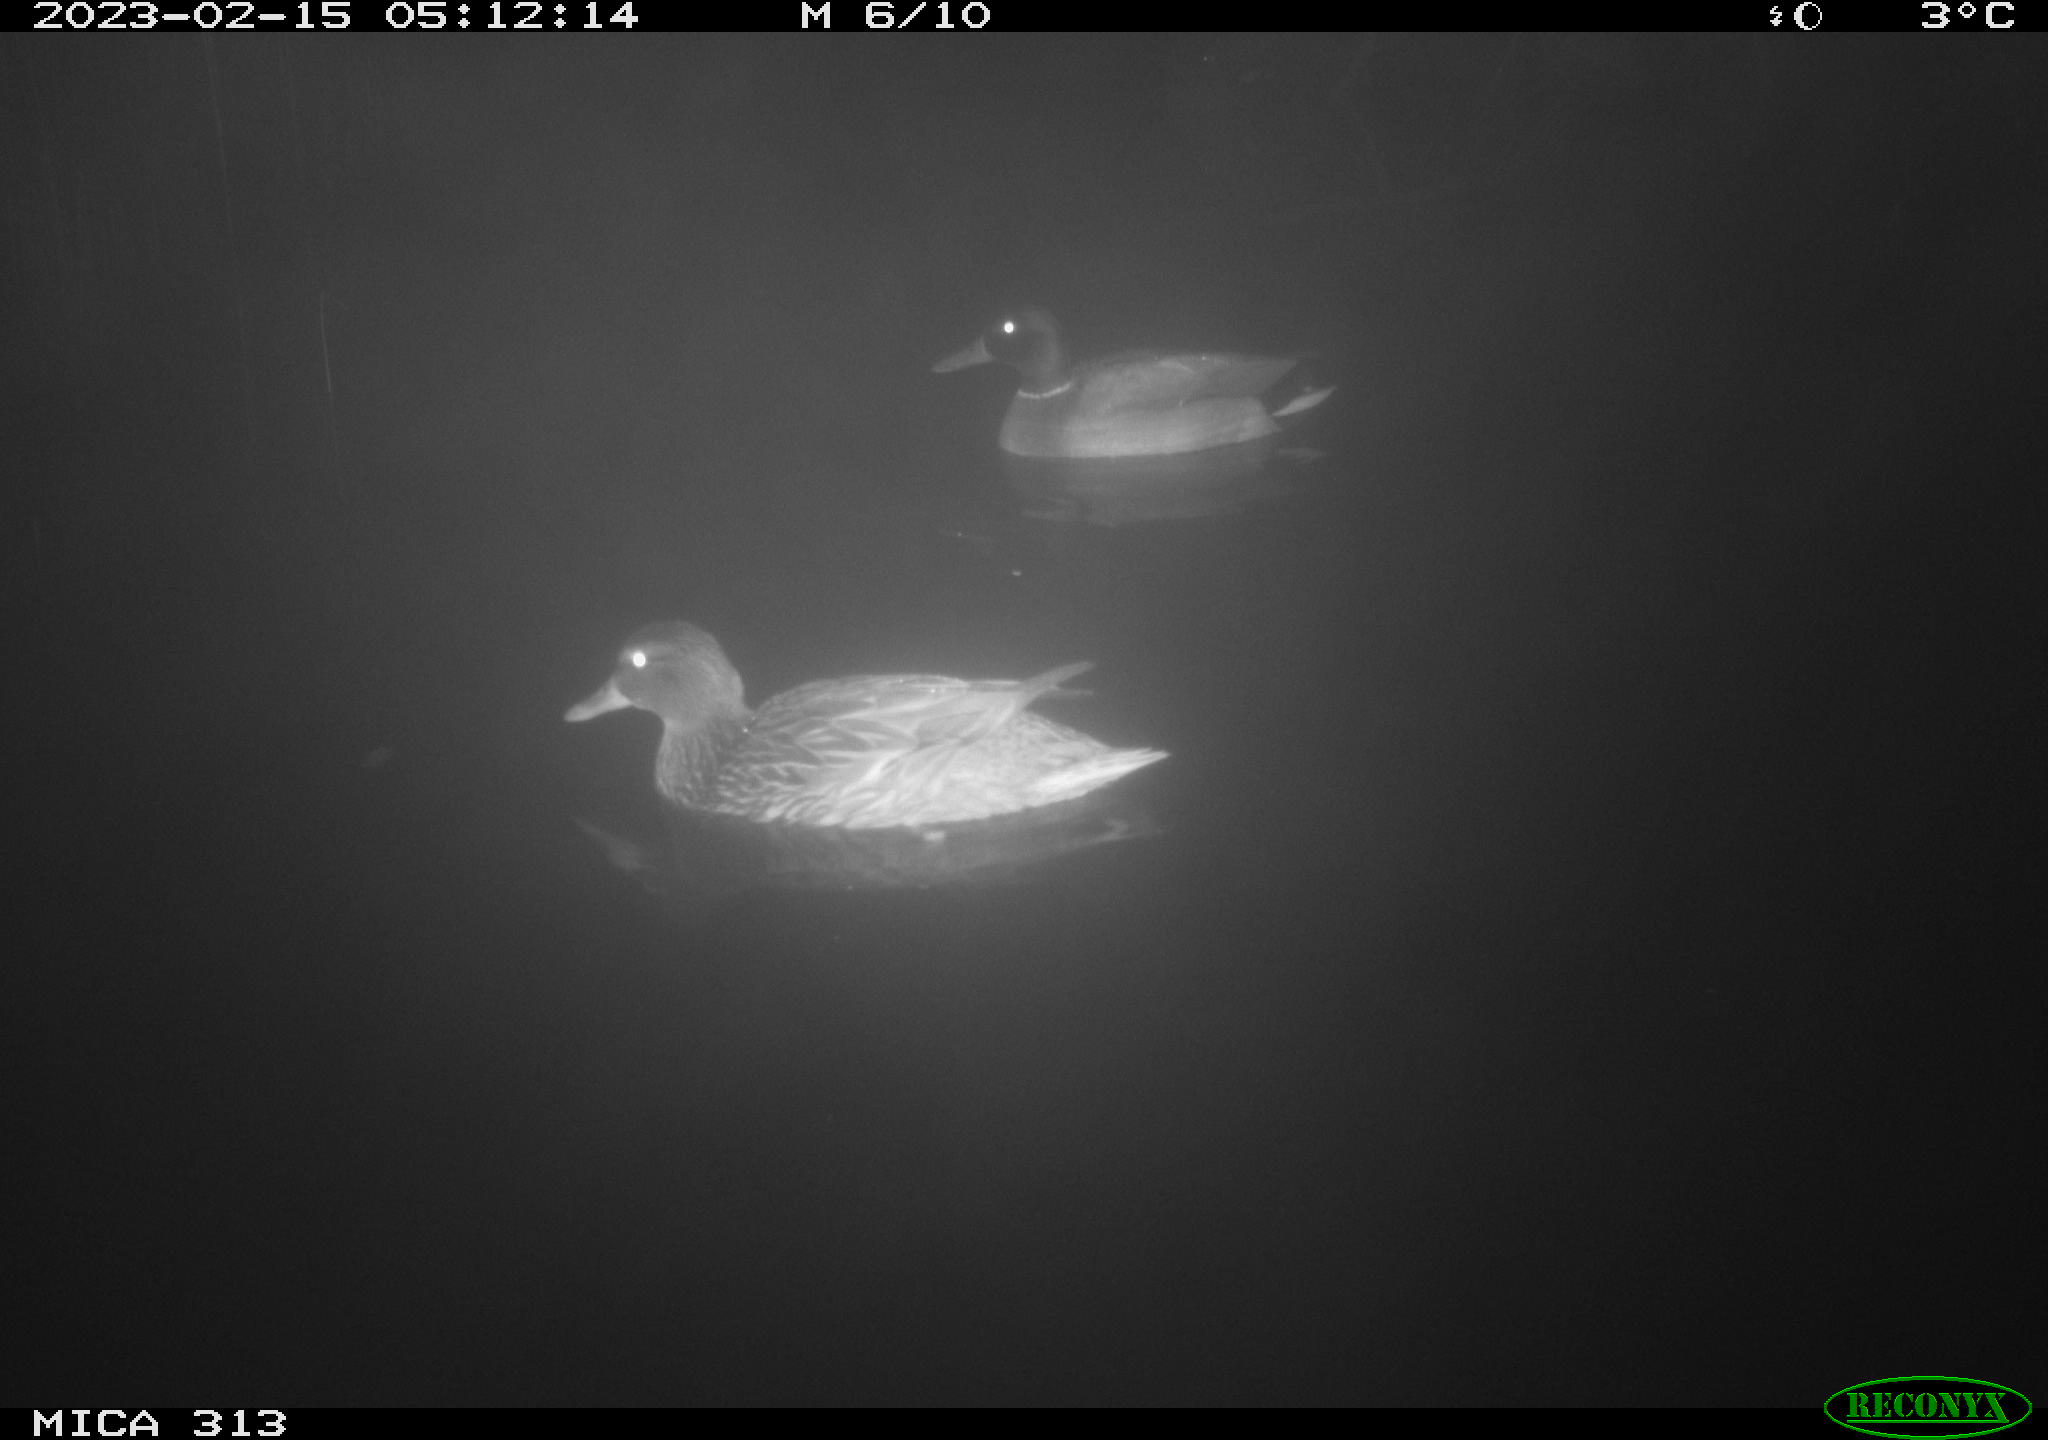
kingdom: Animalia
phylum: Chordata
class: Aves
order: Anseriformes
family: Anatidae
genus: Anas
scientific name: Anas
